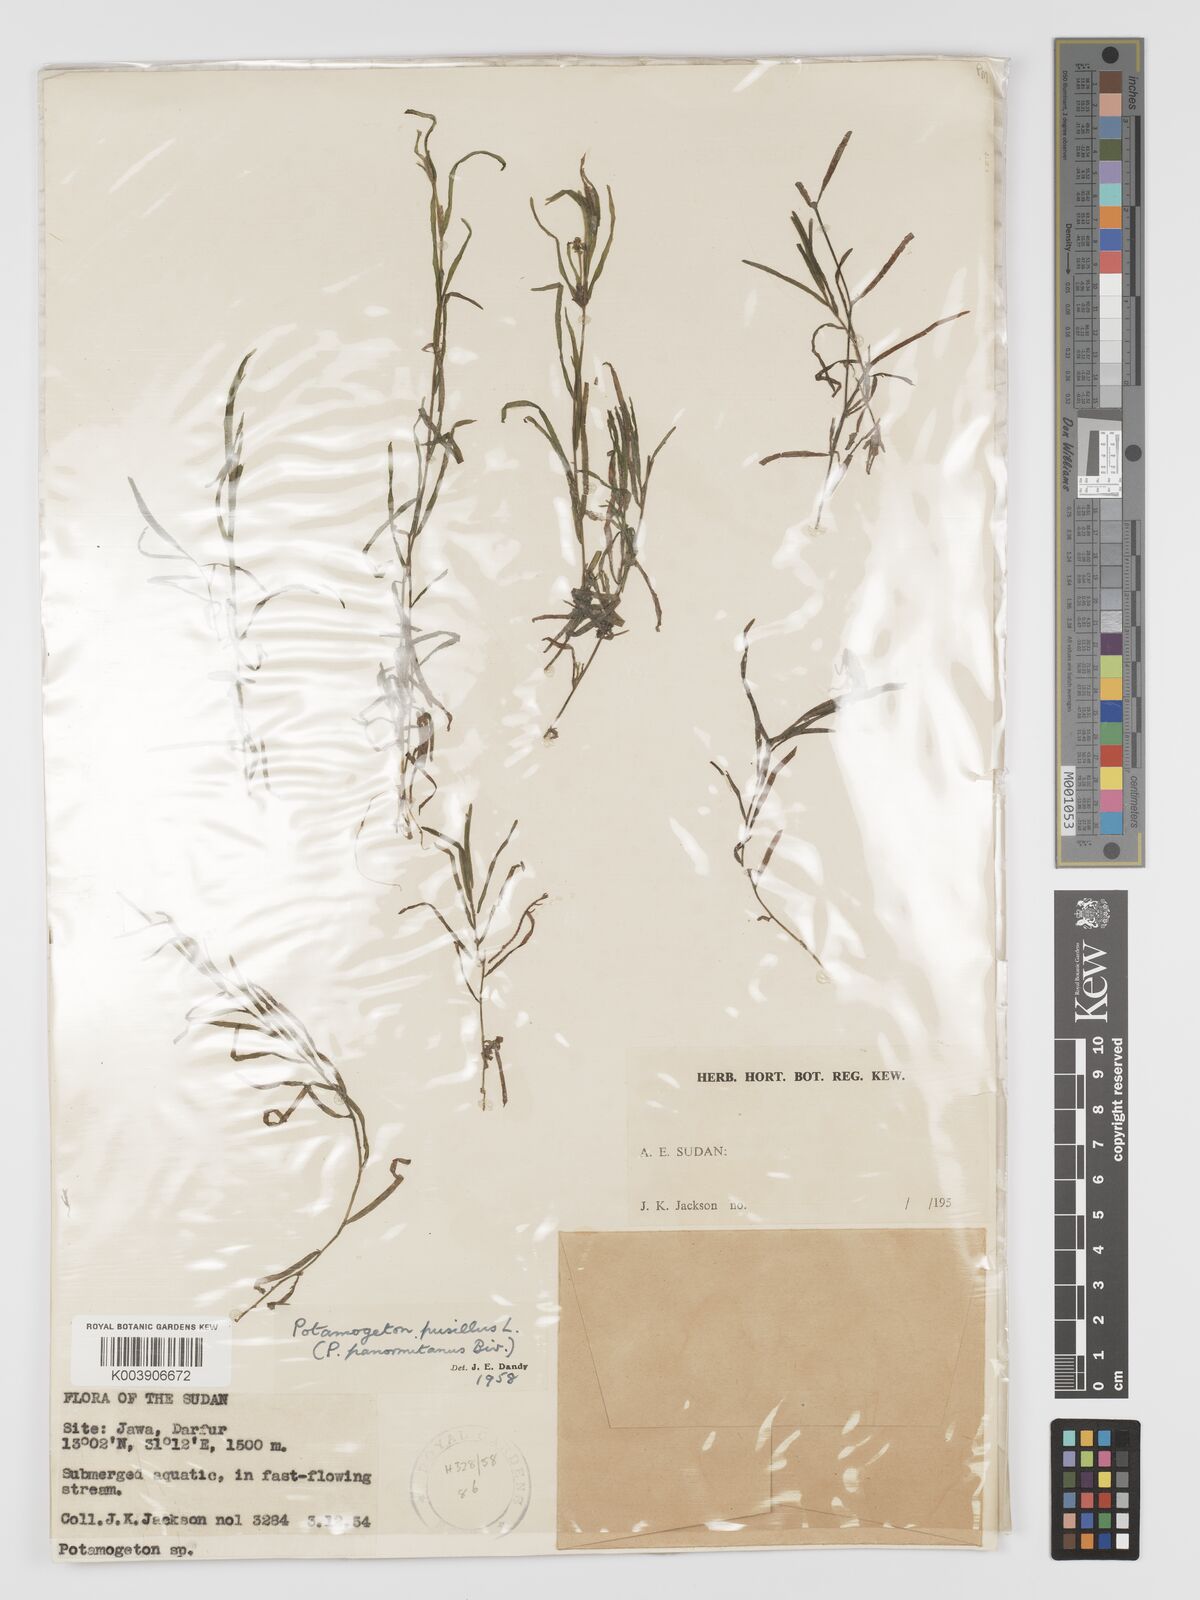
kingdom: Plantae
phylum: Tracheophyta
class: Liliopsida
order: Alismatales
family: Potamogetonaceae
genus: Potamogeton
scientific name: Potamogeton pusillus
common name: Lesser pondweed
